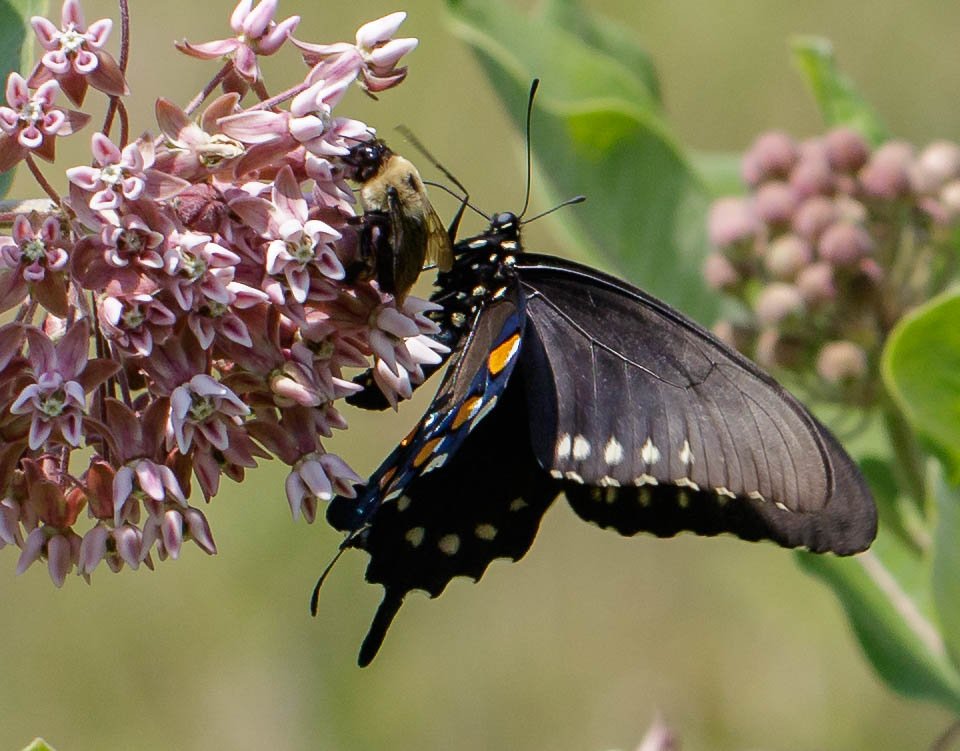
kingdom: Animalia
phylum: Arthropoda
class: Insecta
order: Lepidoptera
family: Papilionidae
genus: Battus
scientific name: Battus philenor
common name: Pipevine Swallowtail
